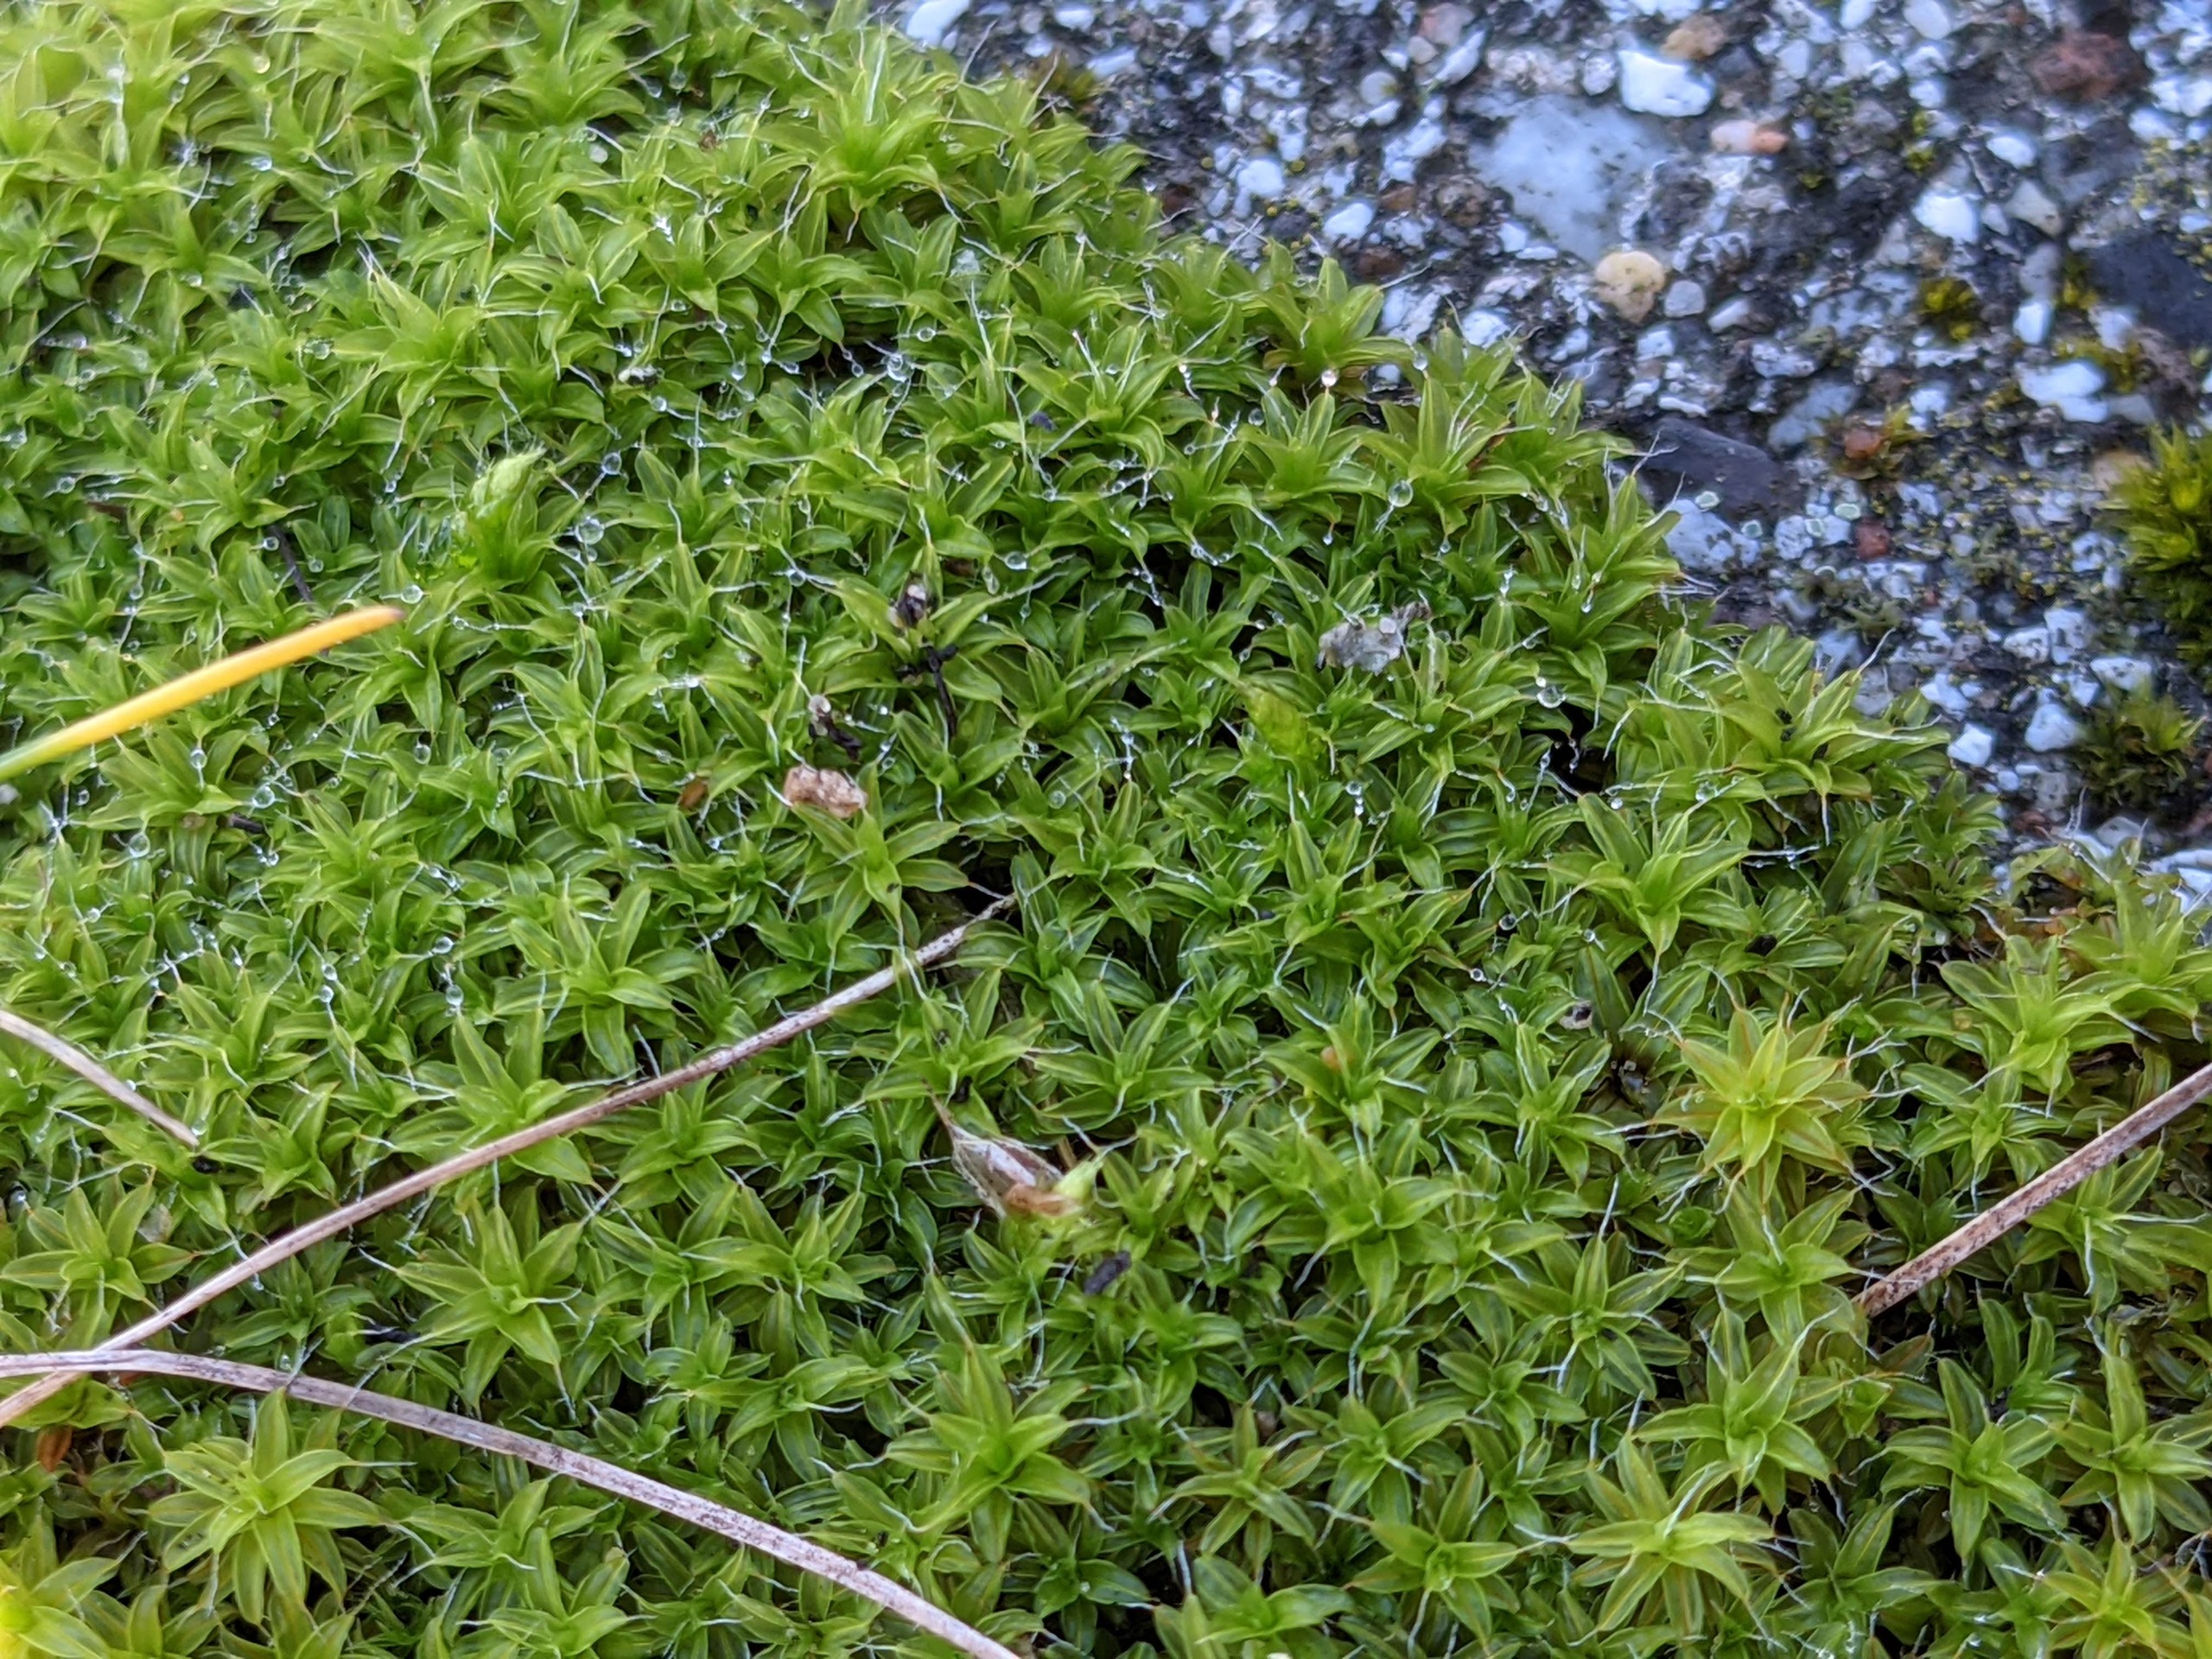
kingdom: Plantae
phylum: Bryophyta
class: Bryopsida
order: Pottiales
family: Pottiaceae
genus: Syntrichia
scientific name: Syntrichia ruralis
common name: Tag-hårstjerne
